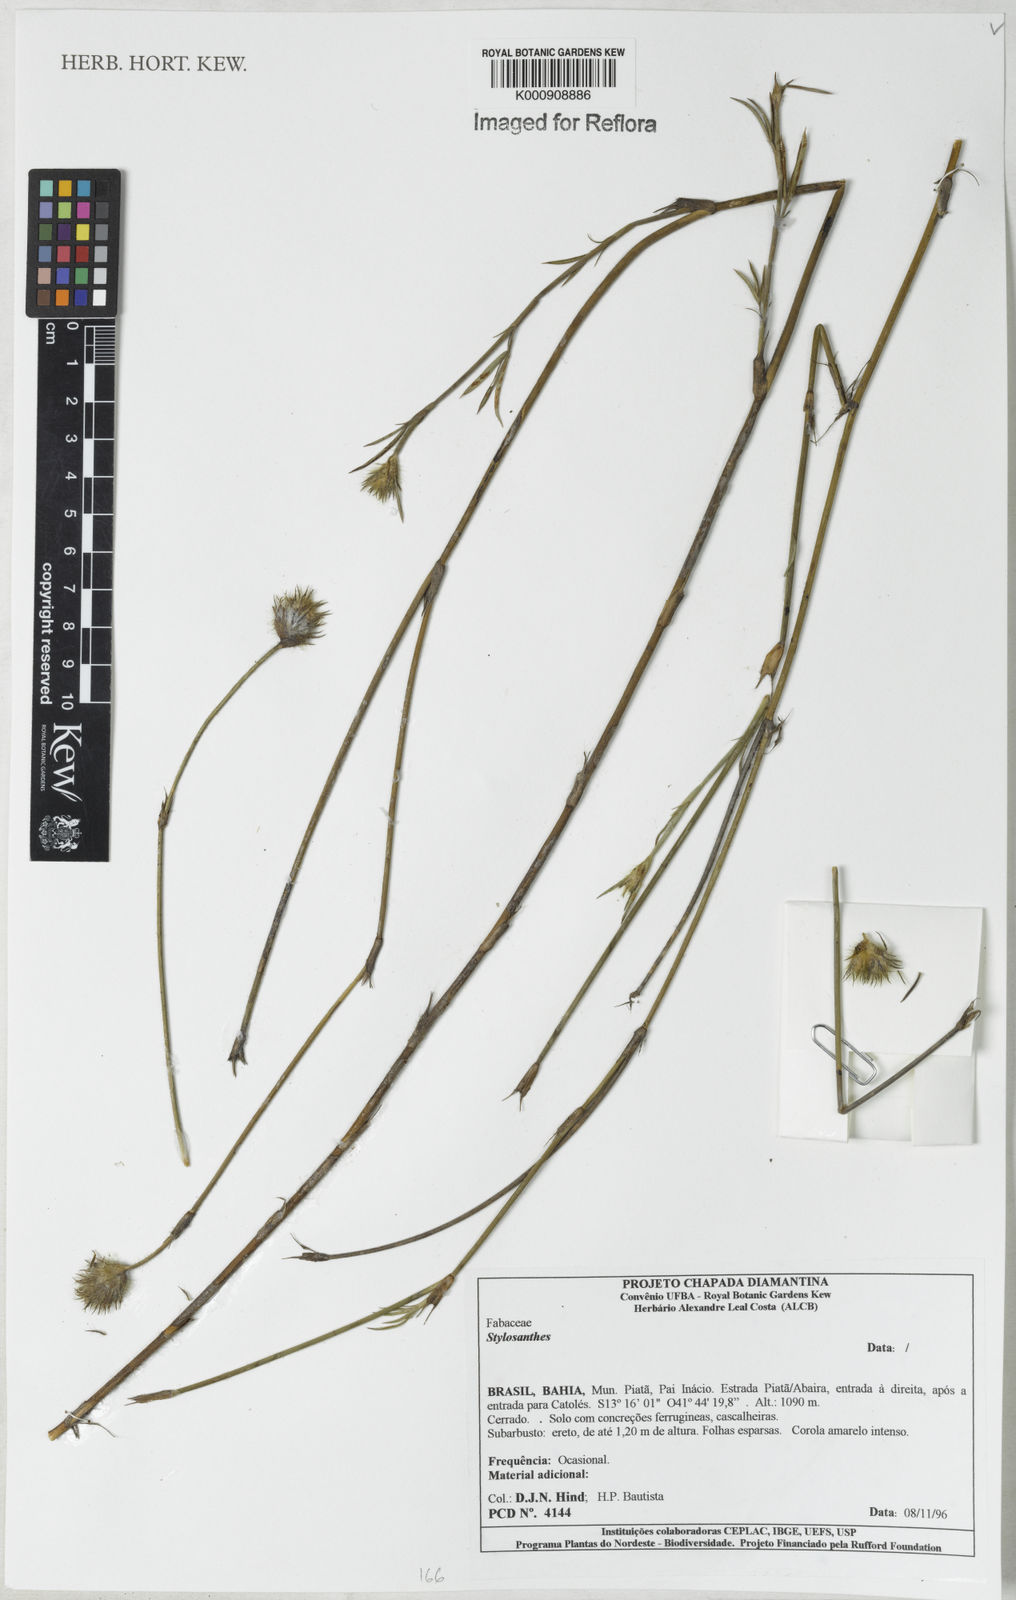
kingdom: Plantae
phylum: Tracheophyta
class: Magnoliopsida
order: Fabales
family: Fabaceae
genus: Stylosanthes
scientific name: Stylosanthes
